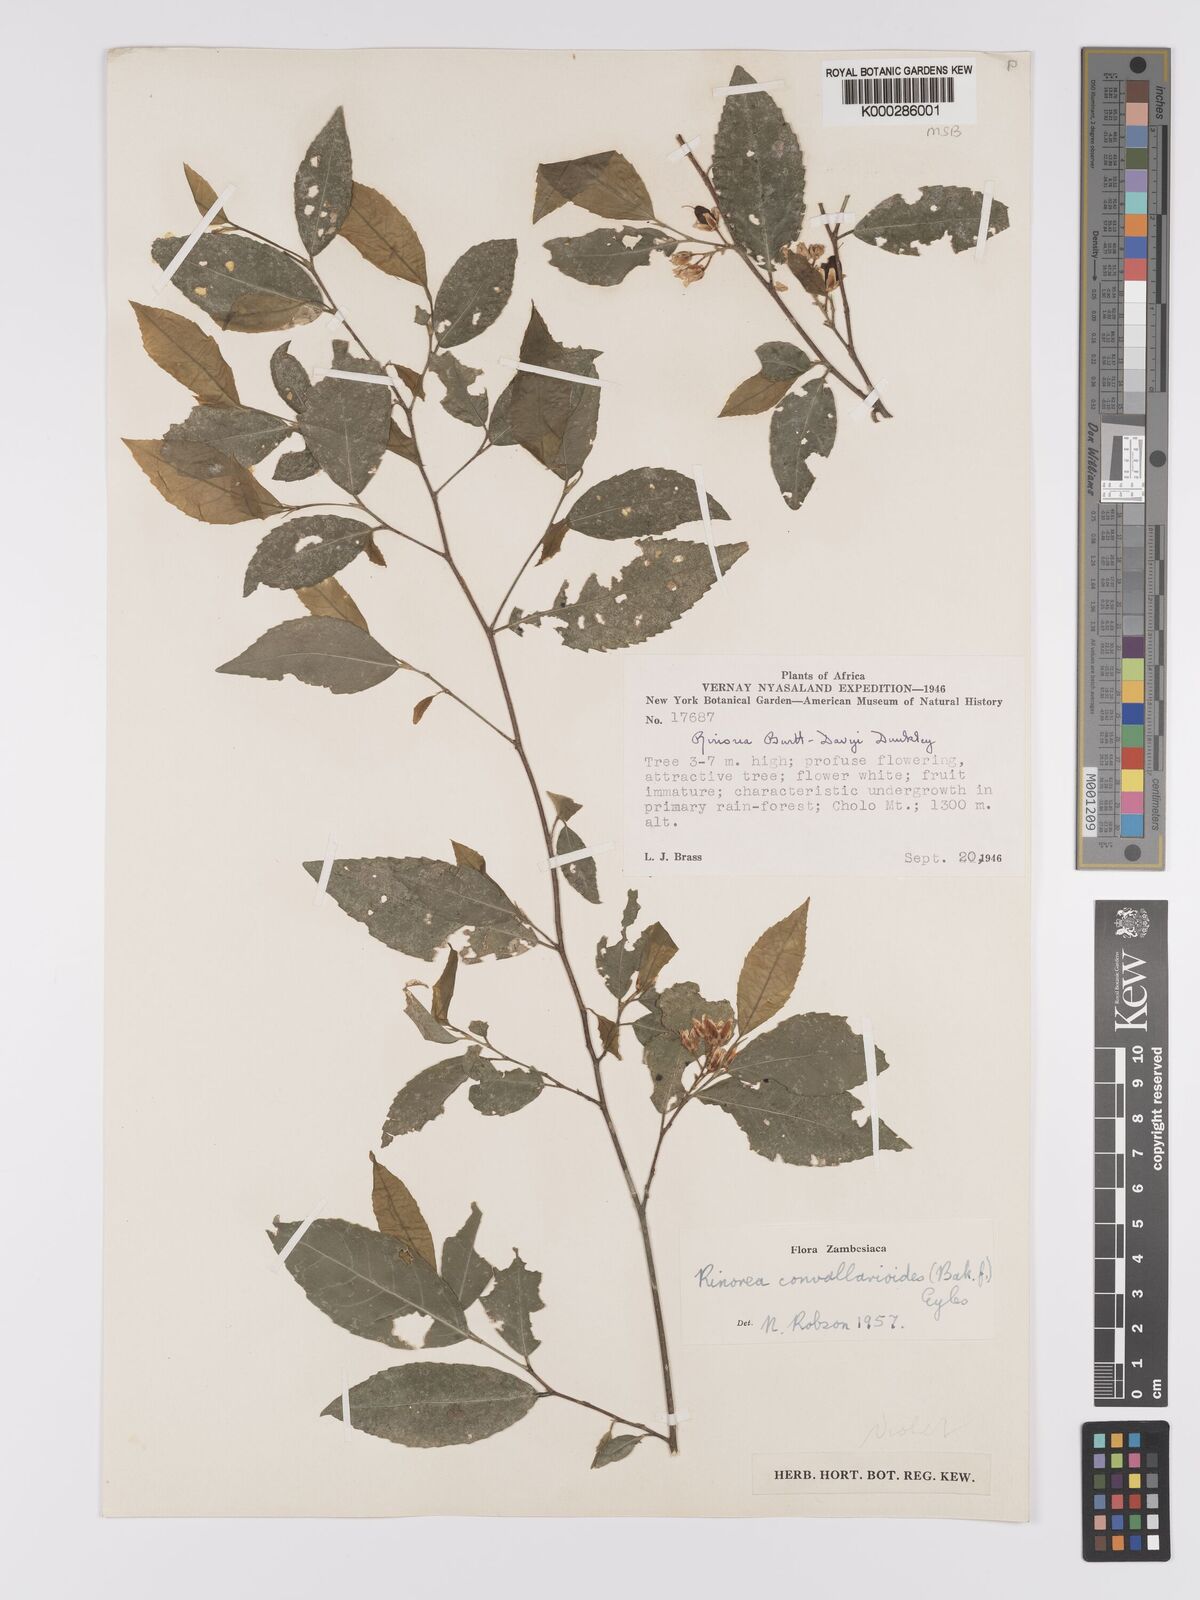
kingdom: Plantae
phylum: Tracheophyta
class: Magnoliopsida
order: Malpighiales
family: Violaceae
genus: Rinorea
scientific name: Rinorea convallarioides
